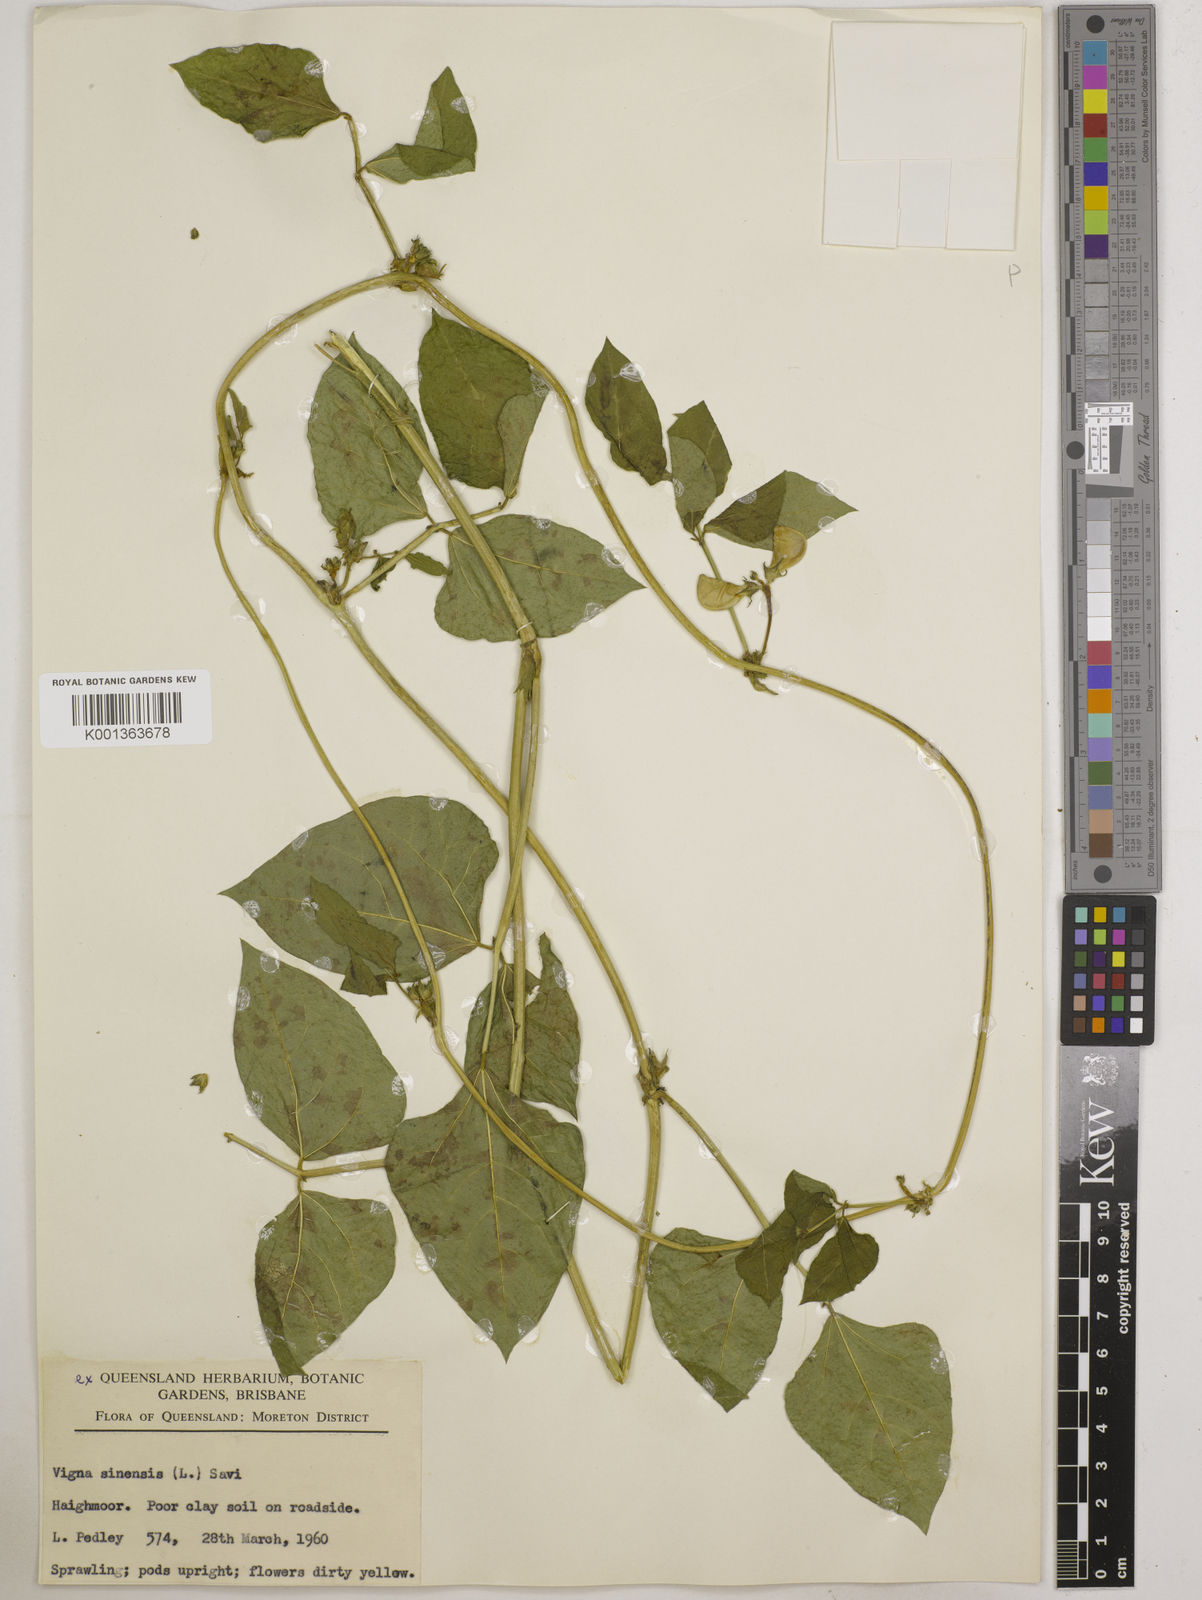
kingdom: Plantae
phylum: Tracheophyta
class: Magnoliopsida
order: Fabales
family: Fabaceae
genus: Vigna
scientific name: Vigna unguiculata
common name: Cowpea
